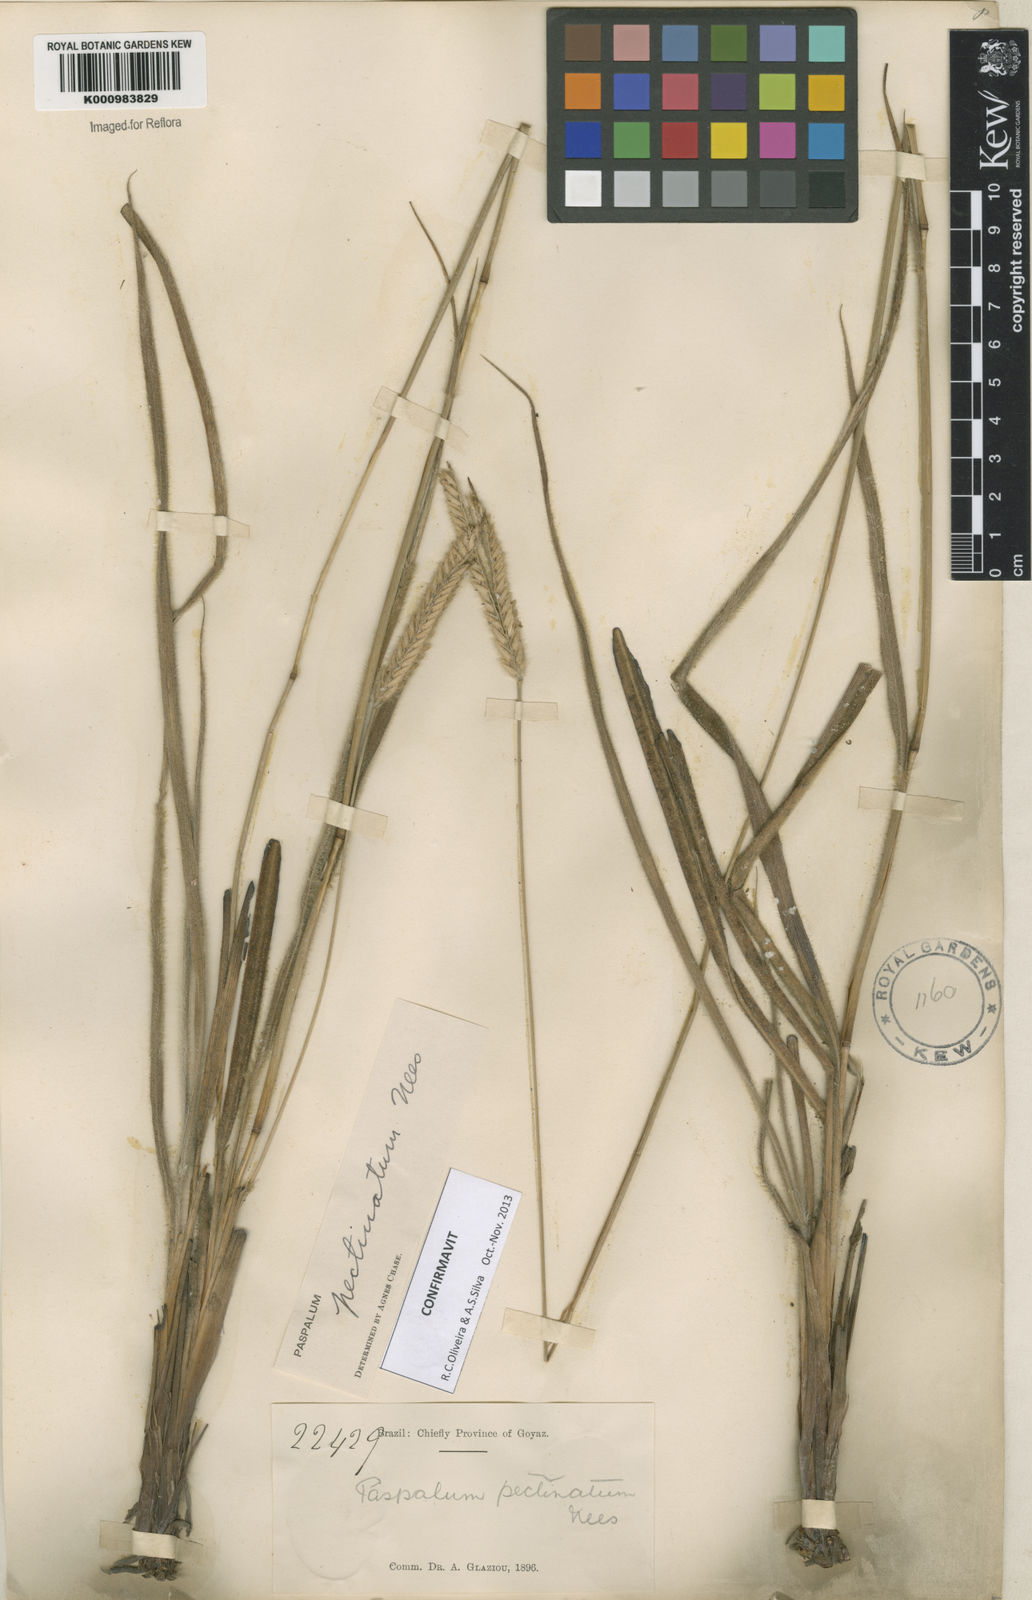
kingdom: Plantae
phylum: Tracheophyta
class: Liliopsida
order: Poales
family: Poaceae
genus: Paspalum
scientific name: Paspalum
